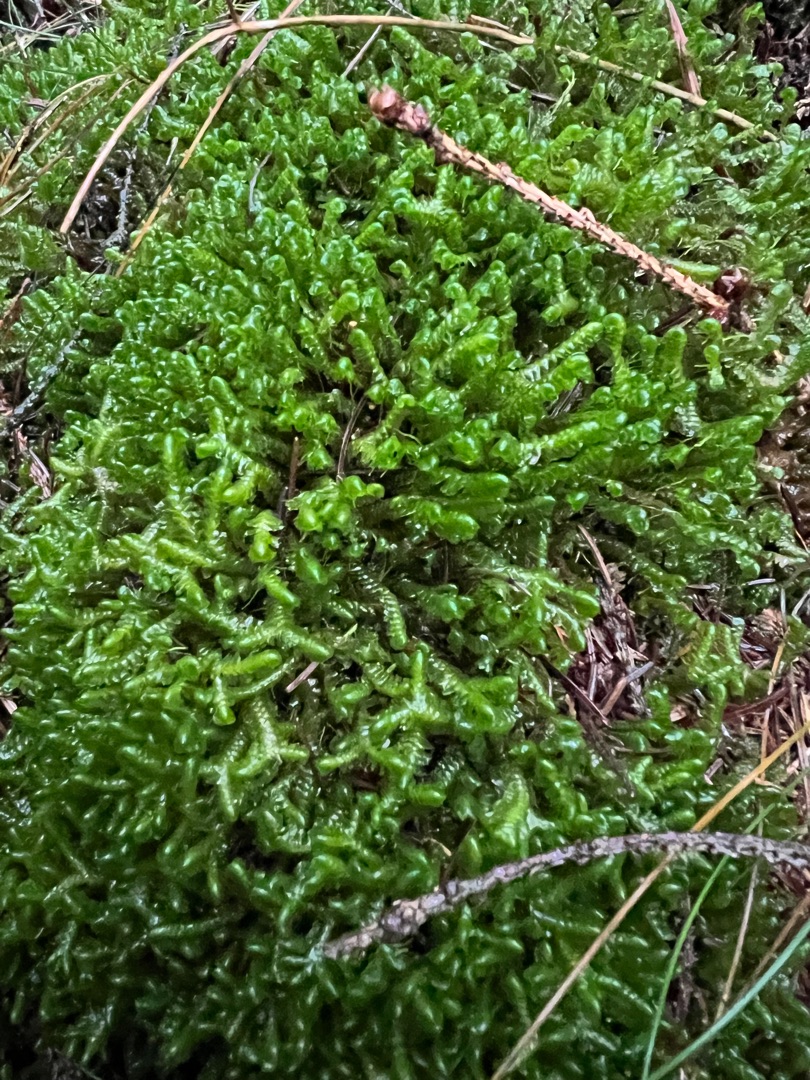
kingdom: Plantae
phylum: Marchantiophyta
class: Jungermanniopsida
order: Jungermanniales
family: Lepidoziaceae
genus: Bazzania
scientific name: Bazzania trilobata
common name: Stor styltemos
